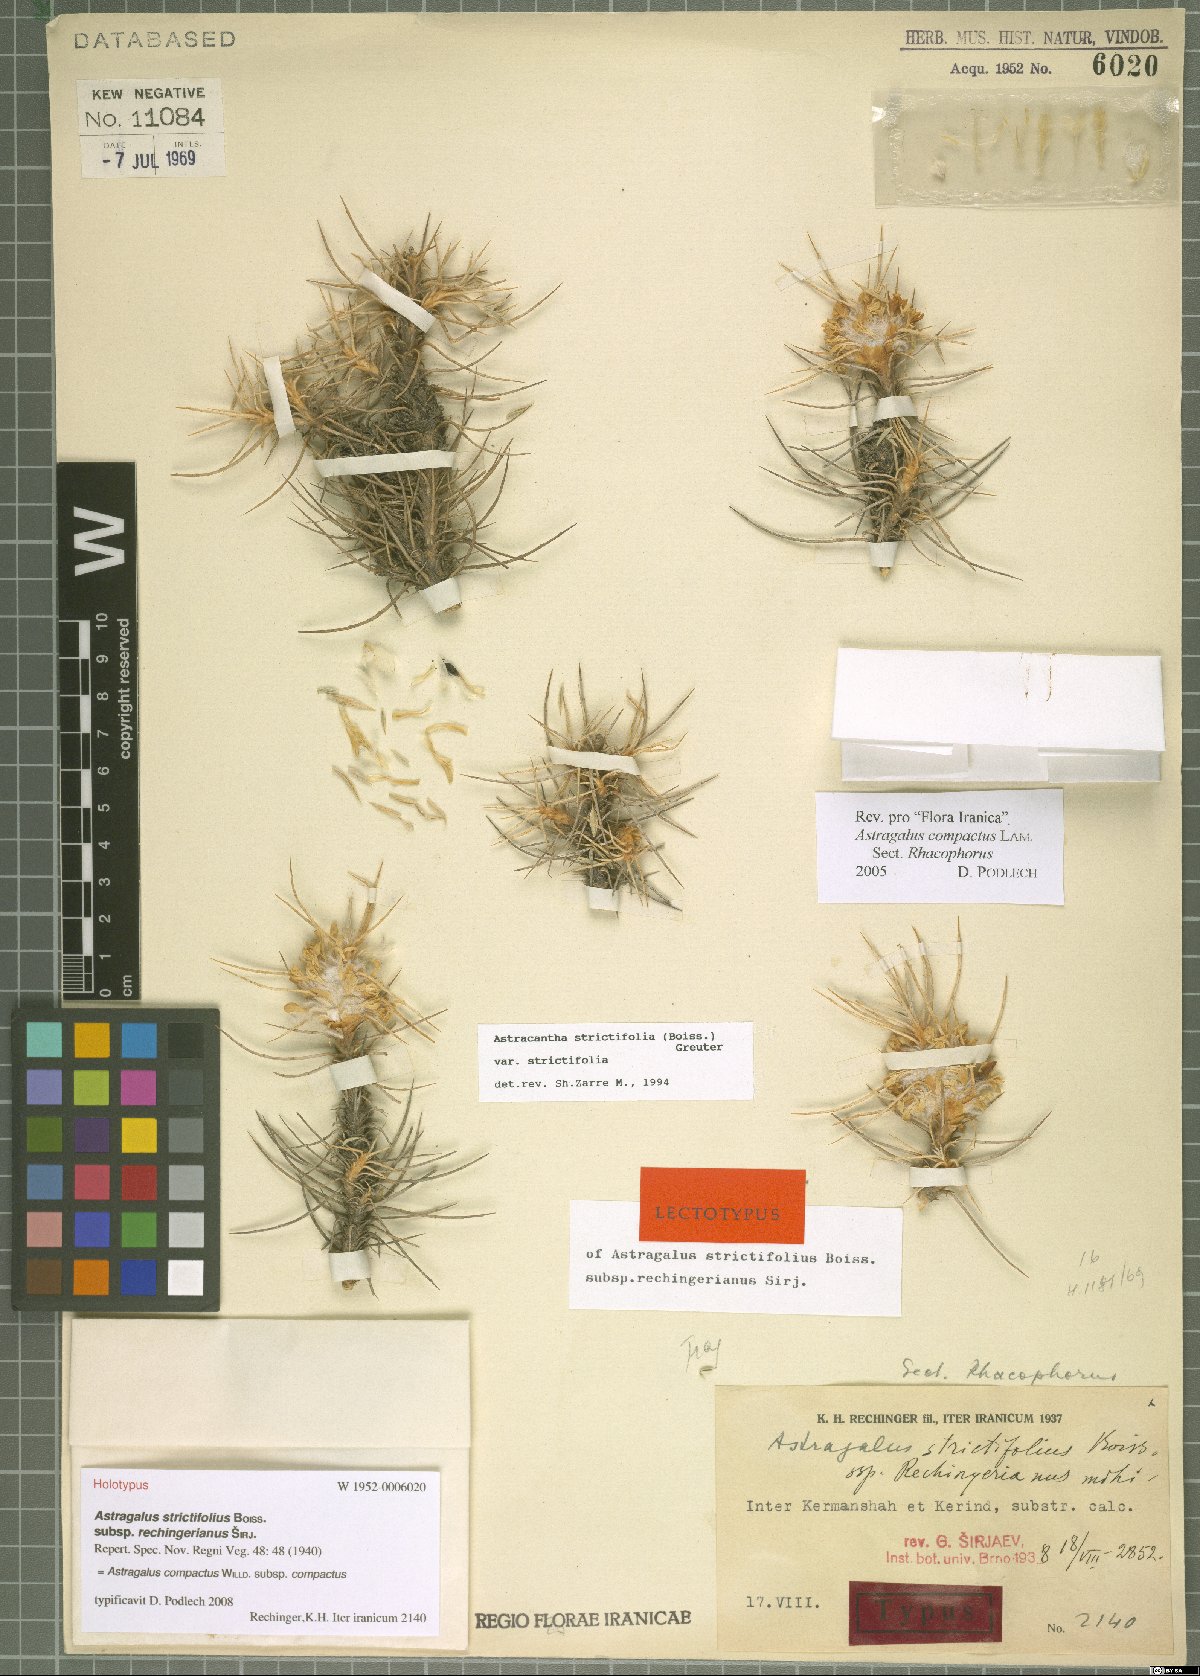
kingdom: Plantae
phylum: Tracheophyta
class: Magnoliopsida
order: Fabales
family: Fabaceae
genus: Astragalus
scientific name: Astragalus compactus
